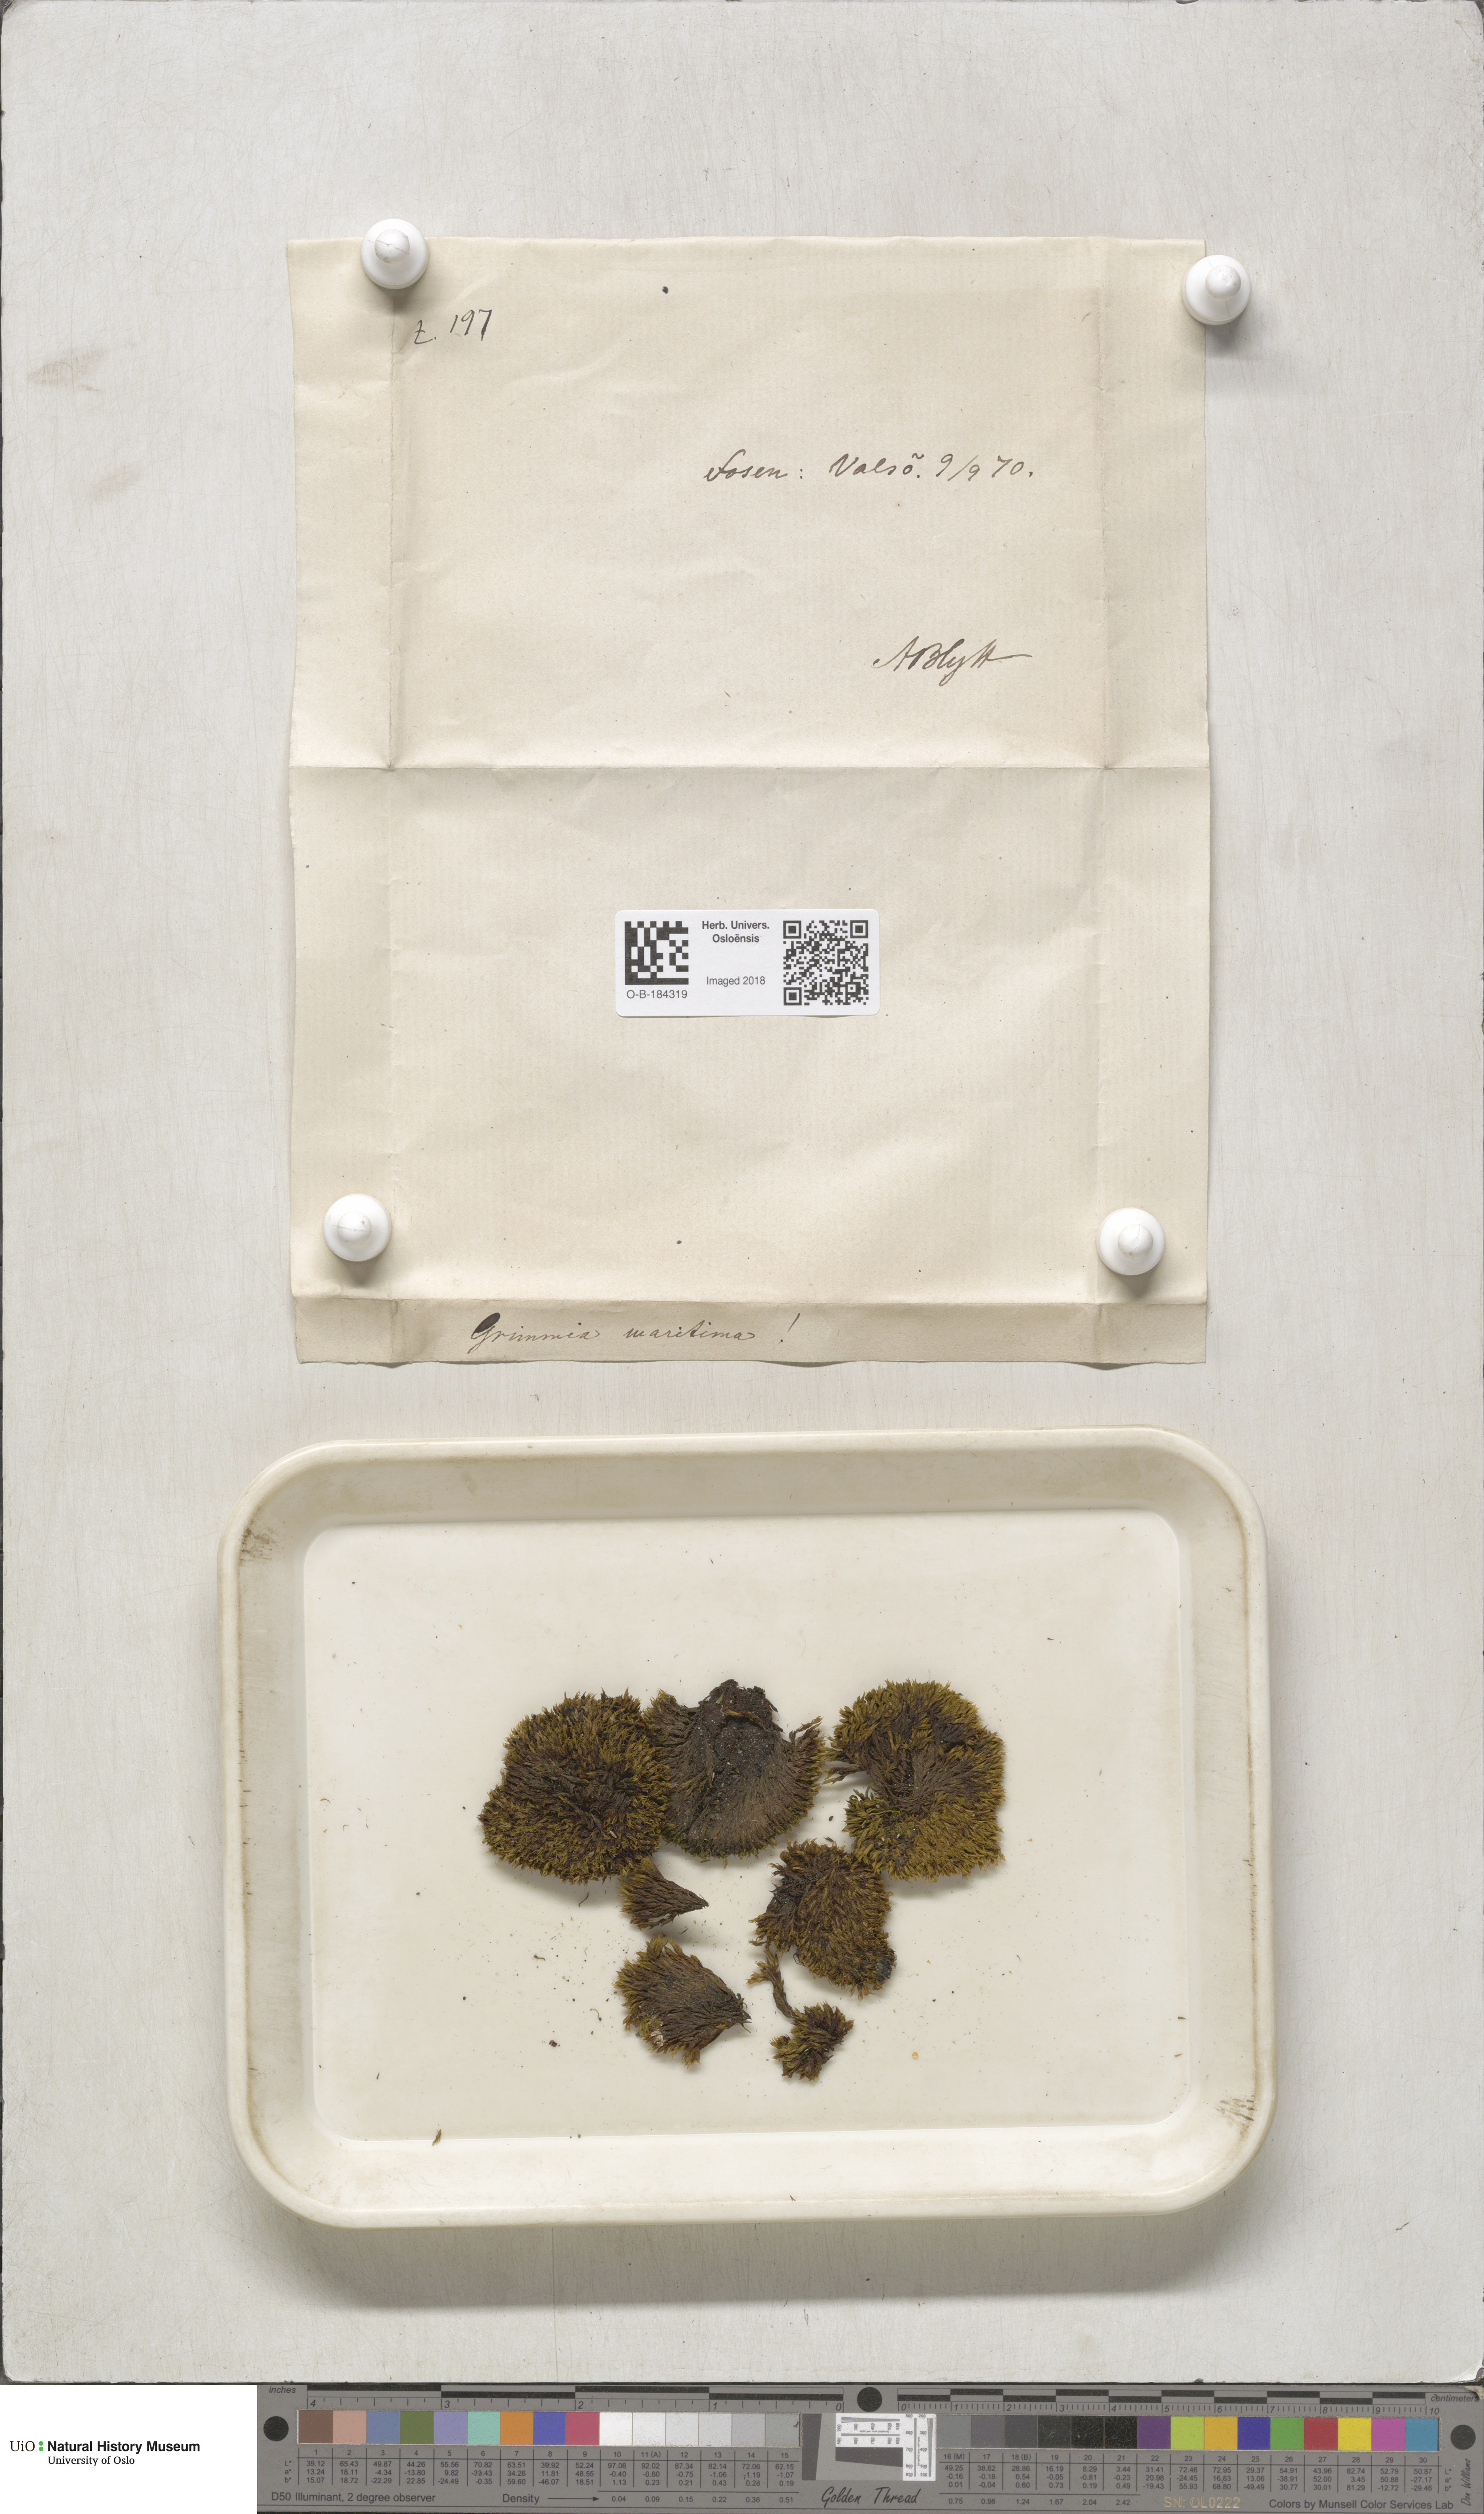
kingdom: Plantae
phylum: Bryophyta
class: Bryopsida
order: Grimmiales
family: Grimmiaceae
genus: Schistidium
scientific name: Schistidium maritimum
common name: Seaside bloom moss
